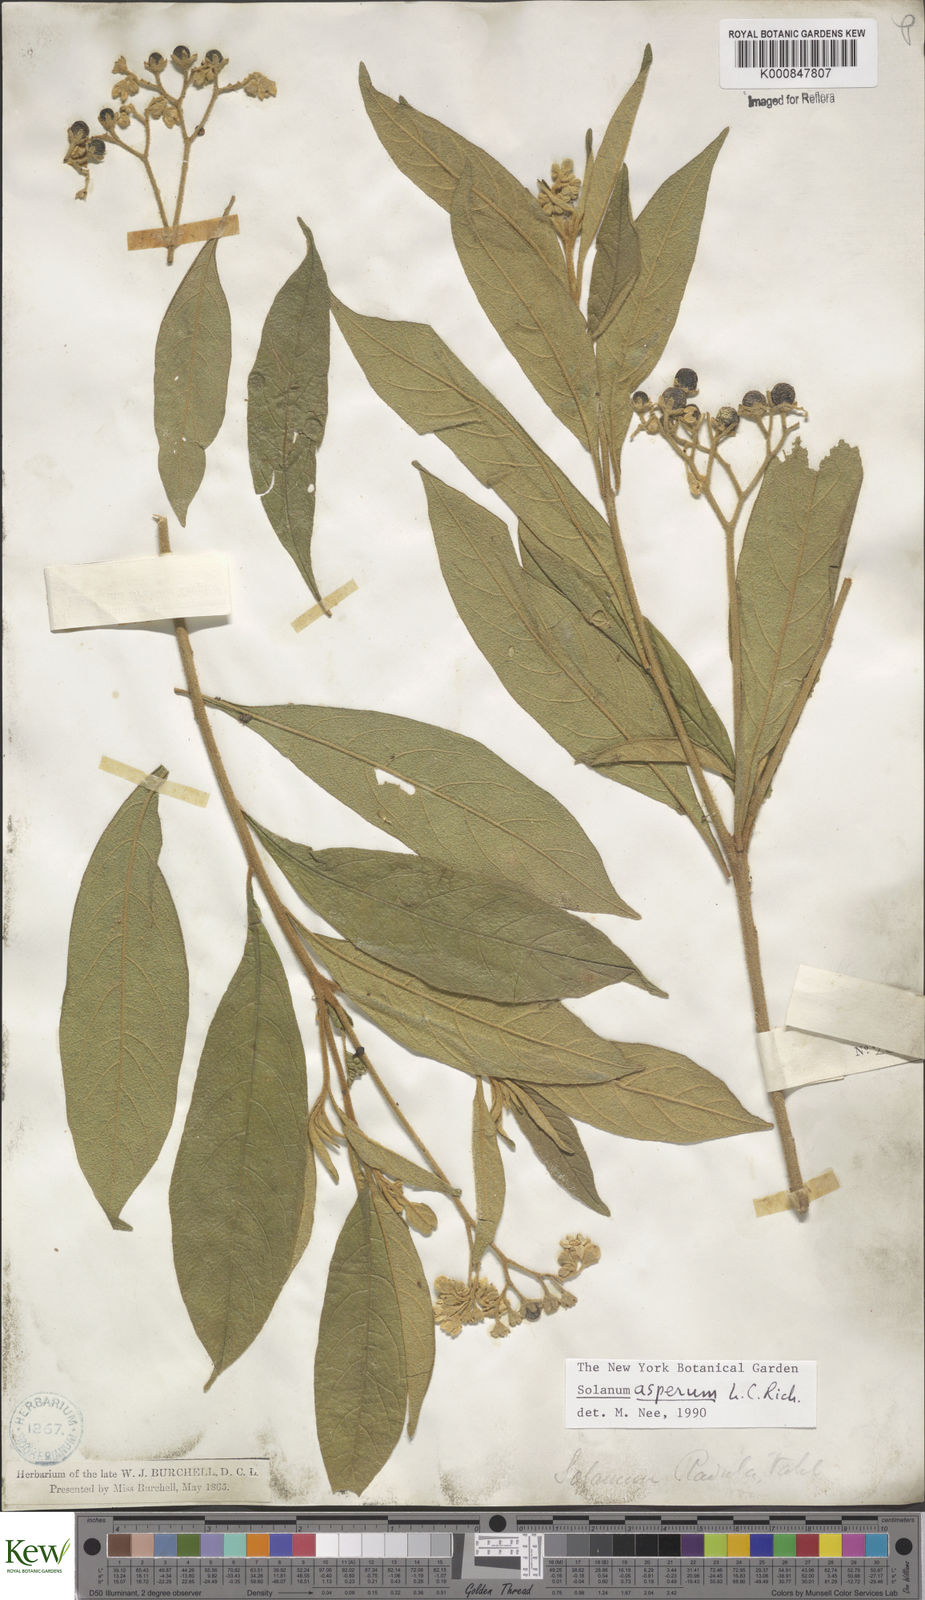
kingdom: Plantae
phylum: Tracheophyta
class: Magnoliopsida
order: Solanales
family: Solanaceae
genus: Solanum
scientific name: Solanum asperum
